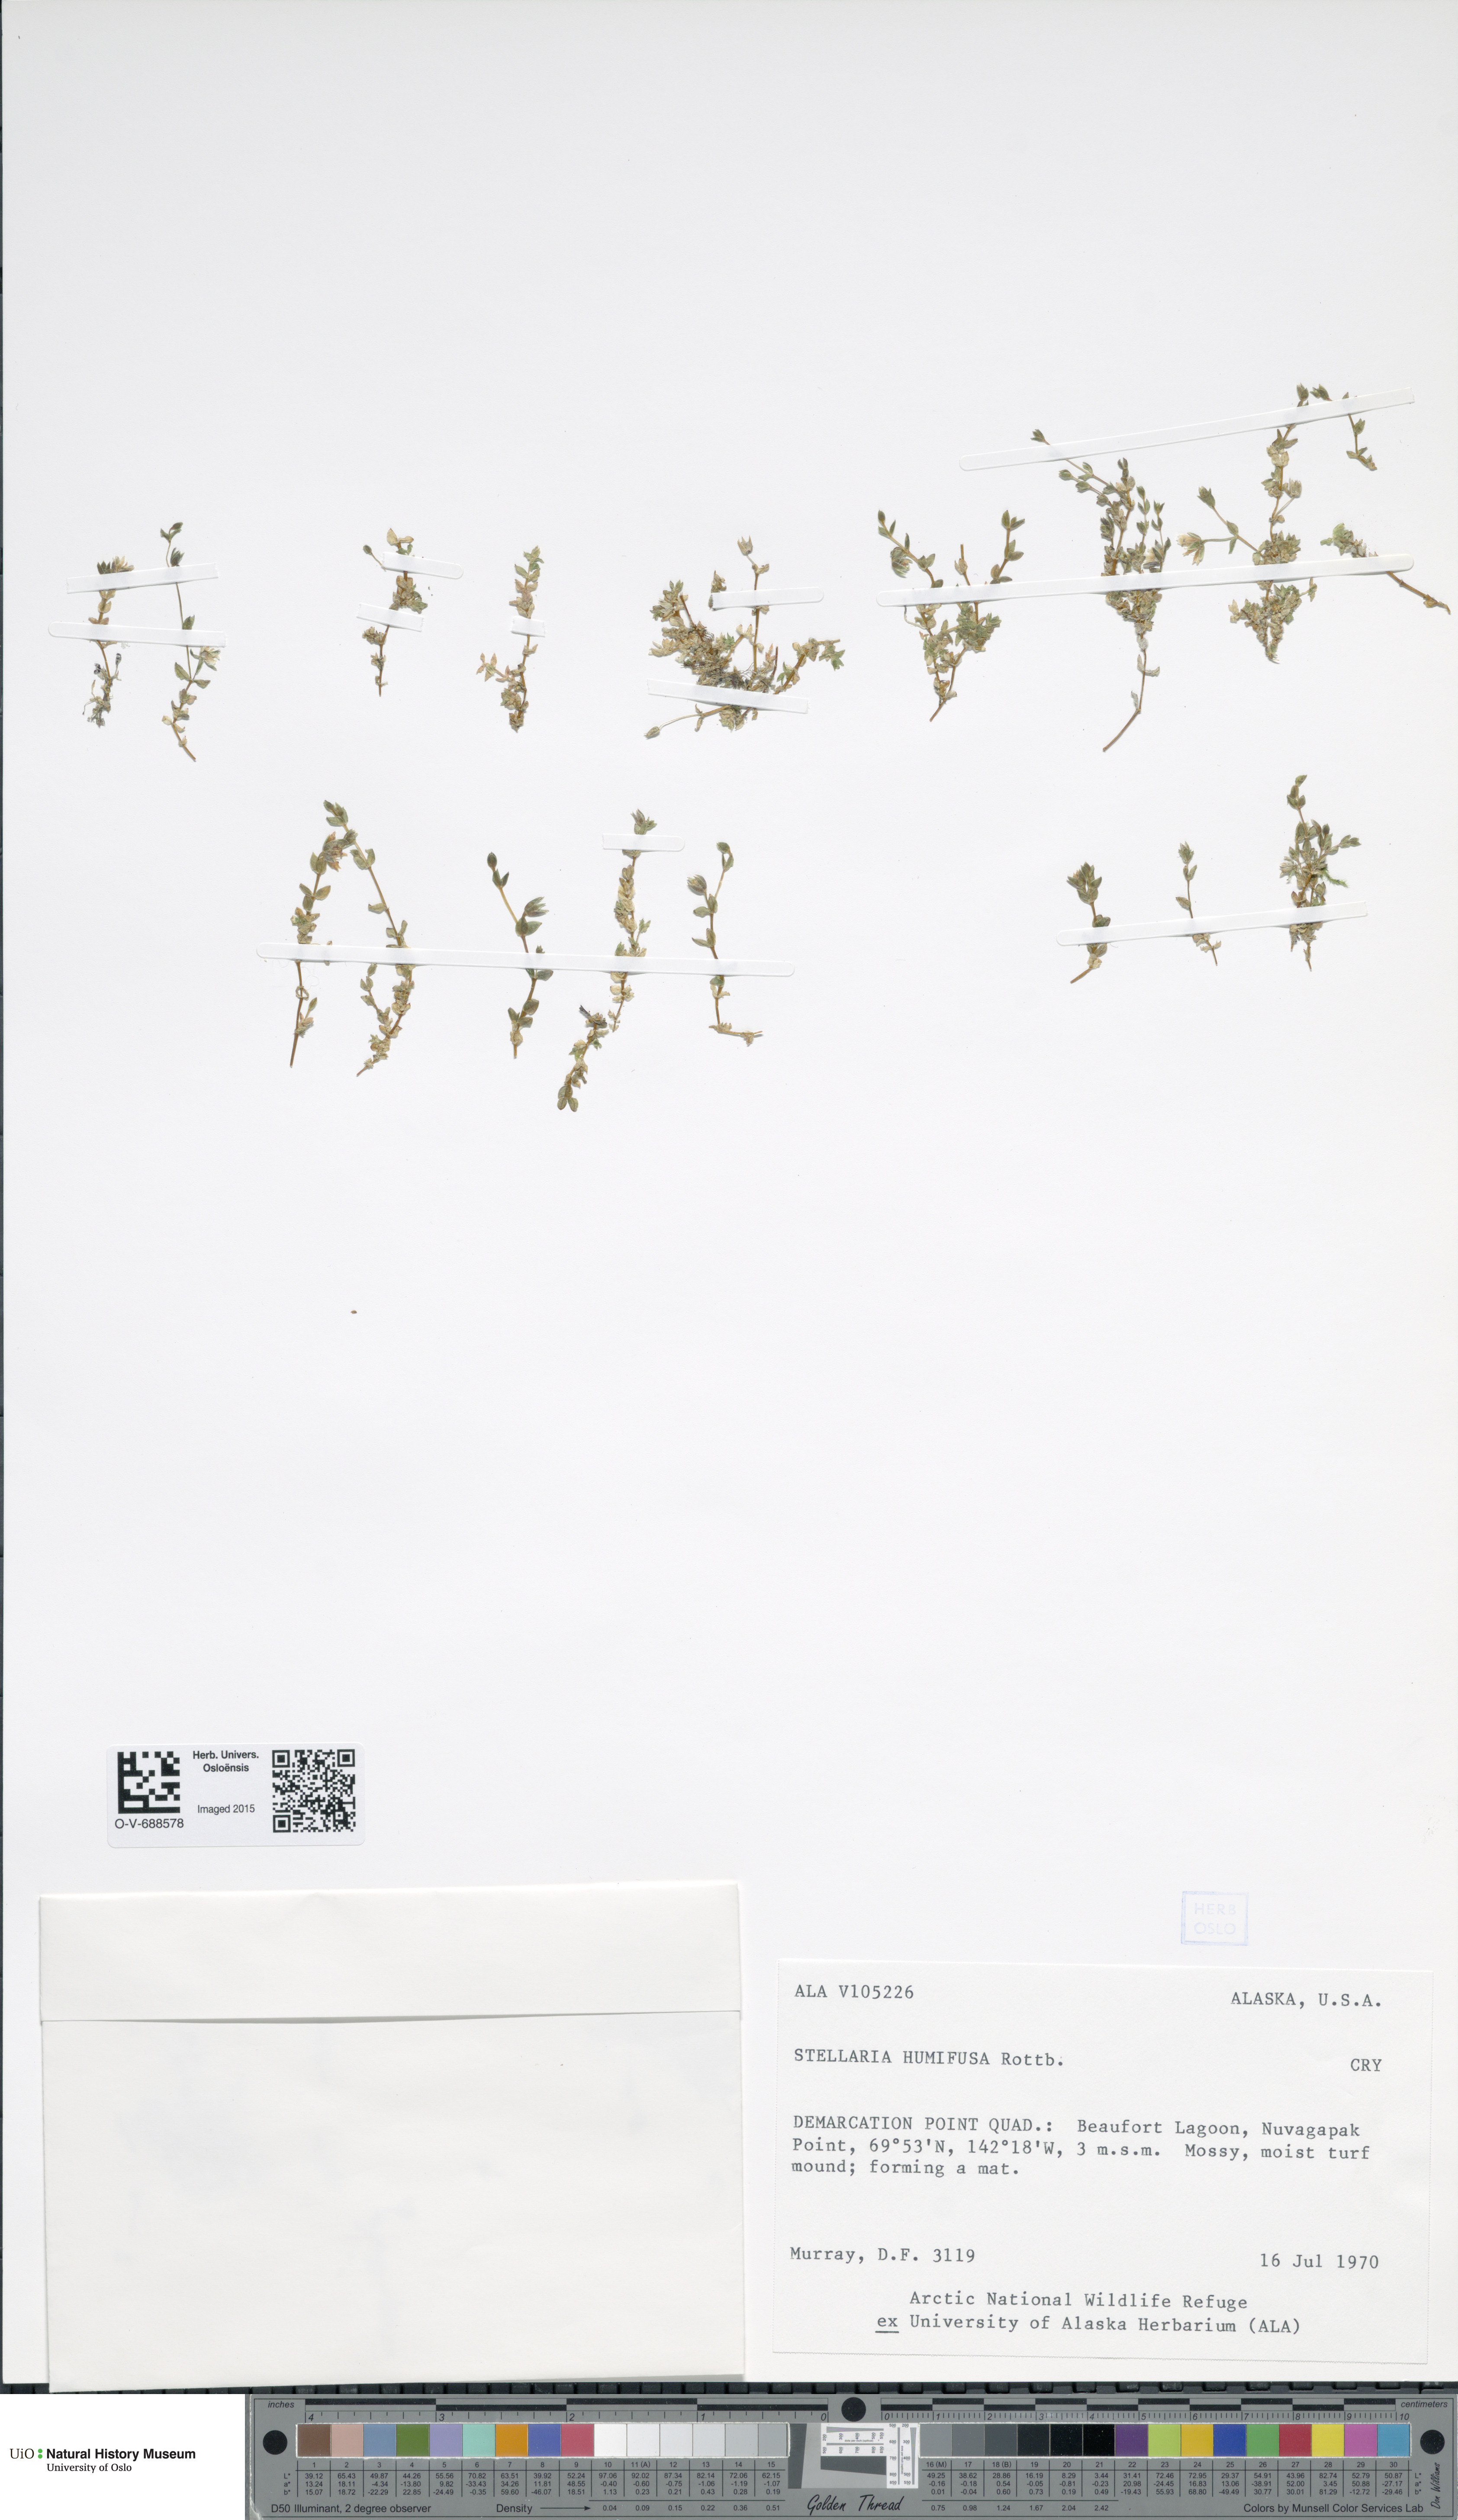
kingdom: Plantae
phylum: Tracheophyta
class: Magnoliopsida
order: Caryophyllales
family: Caryophyllaceae
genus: Stellaria
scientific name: Stellaria humifusa
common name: Creeping starwort
